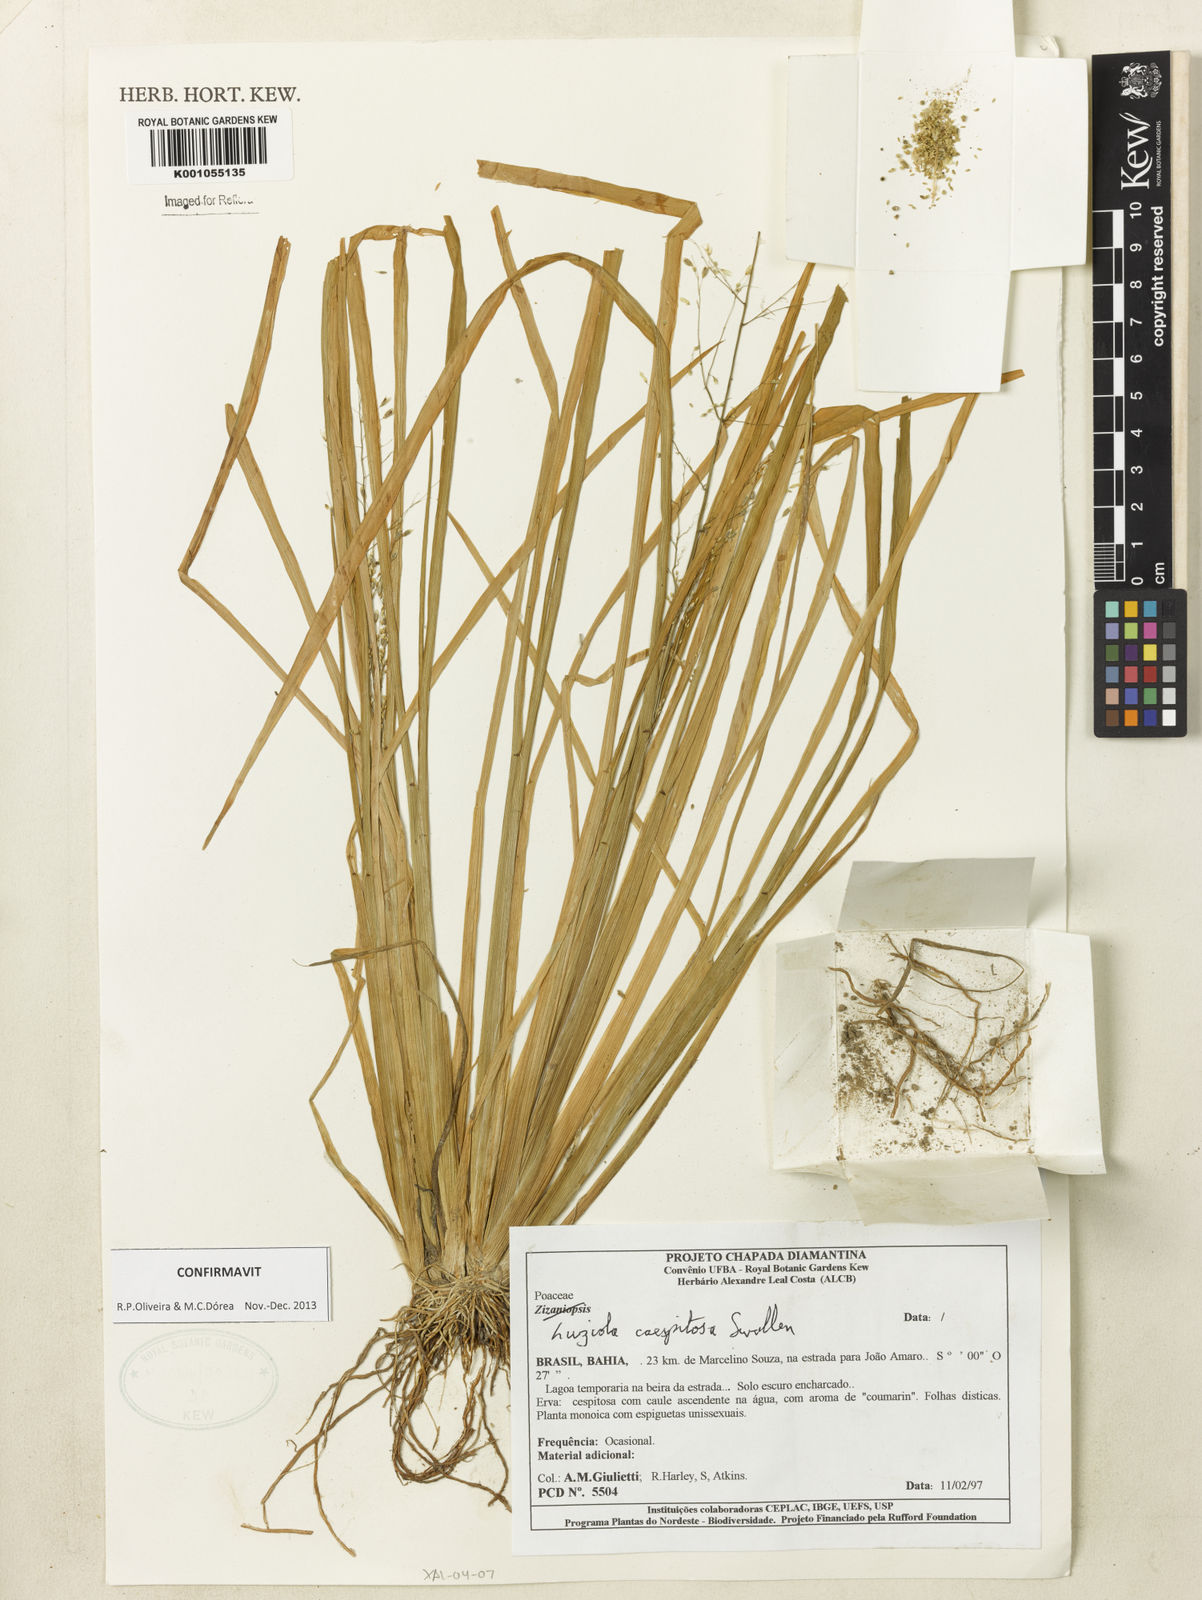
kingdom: Plantae
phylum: Tracheophyta
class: Liliopsida
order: Poales
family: Poaceae
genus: Luziola
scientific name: Luziola caespitosa
